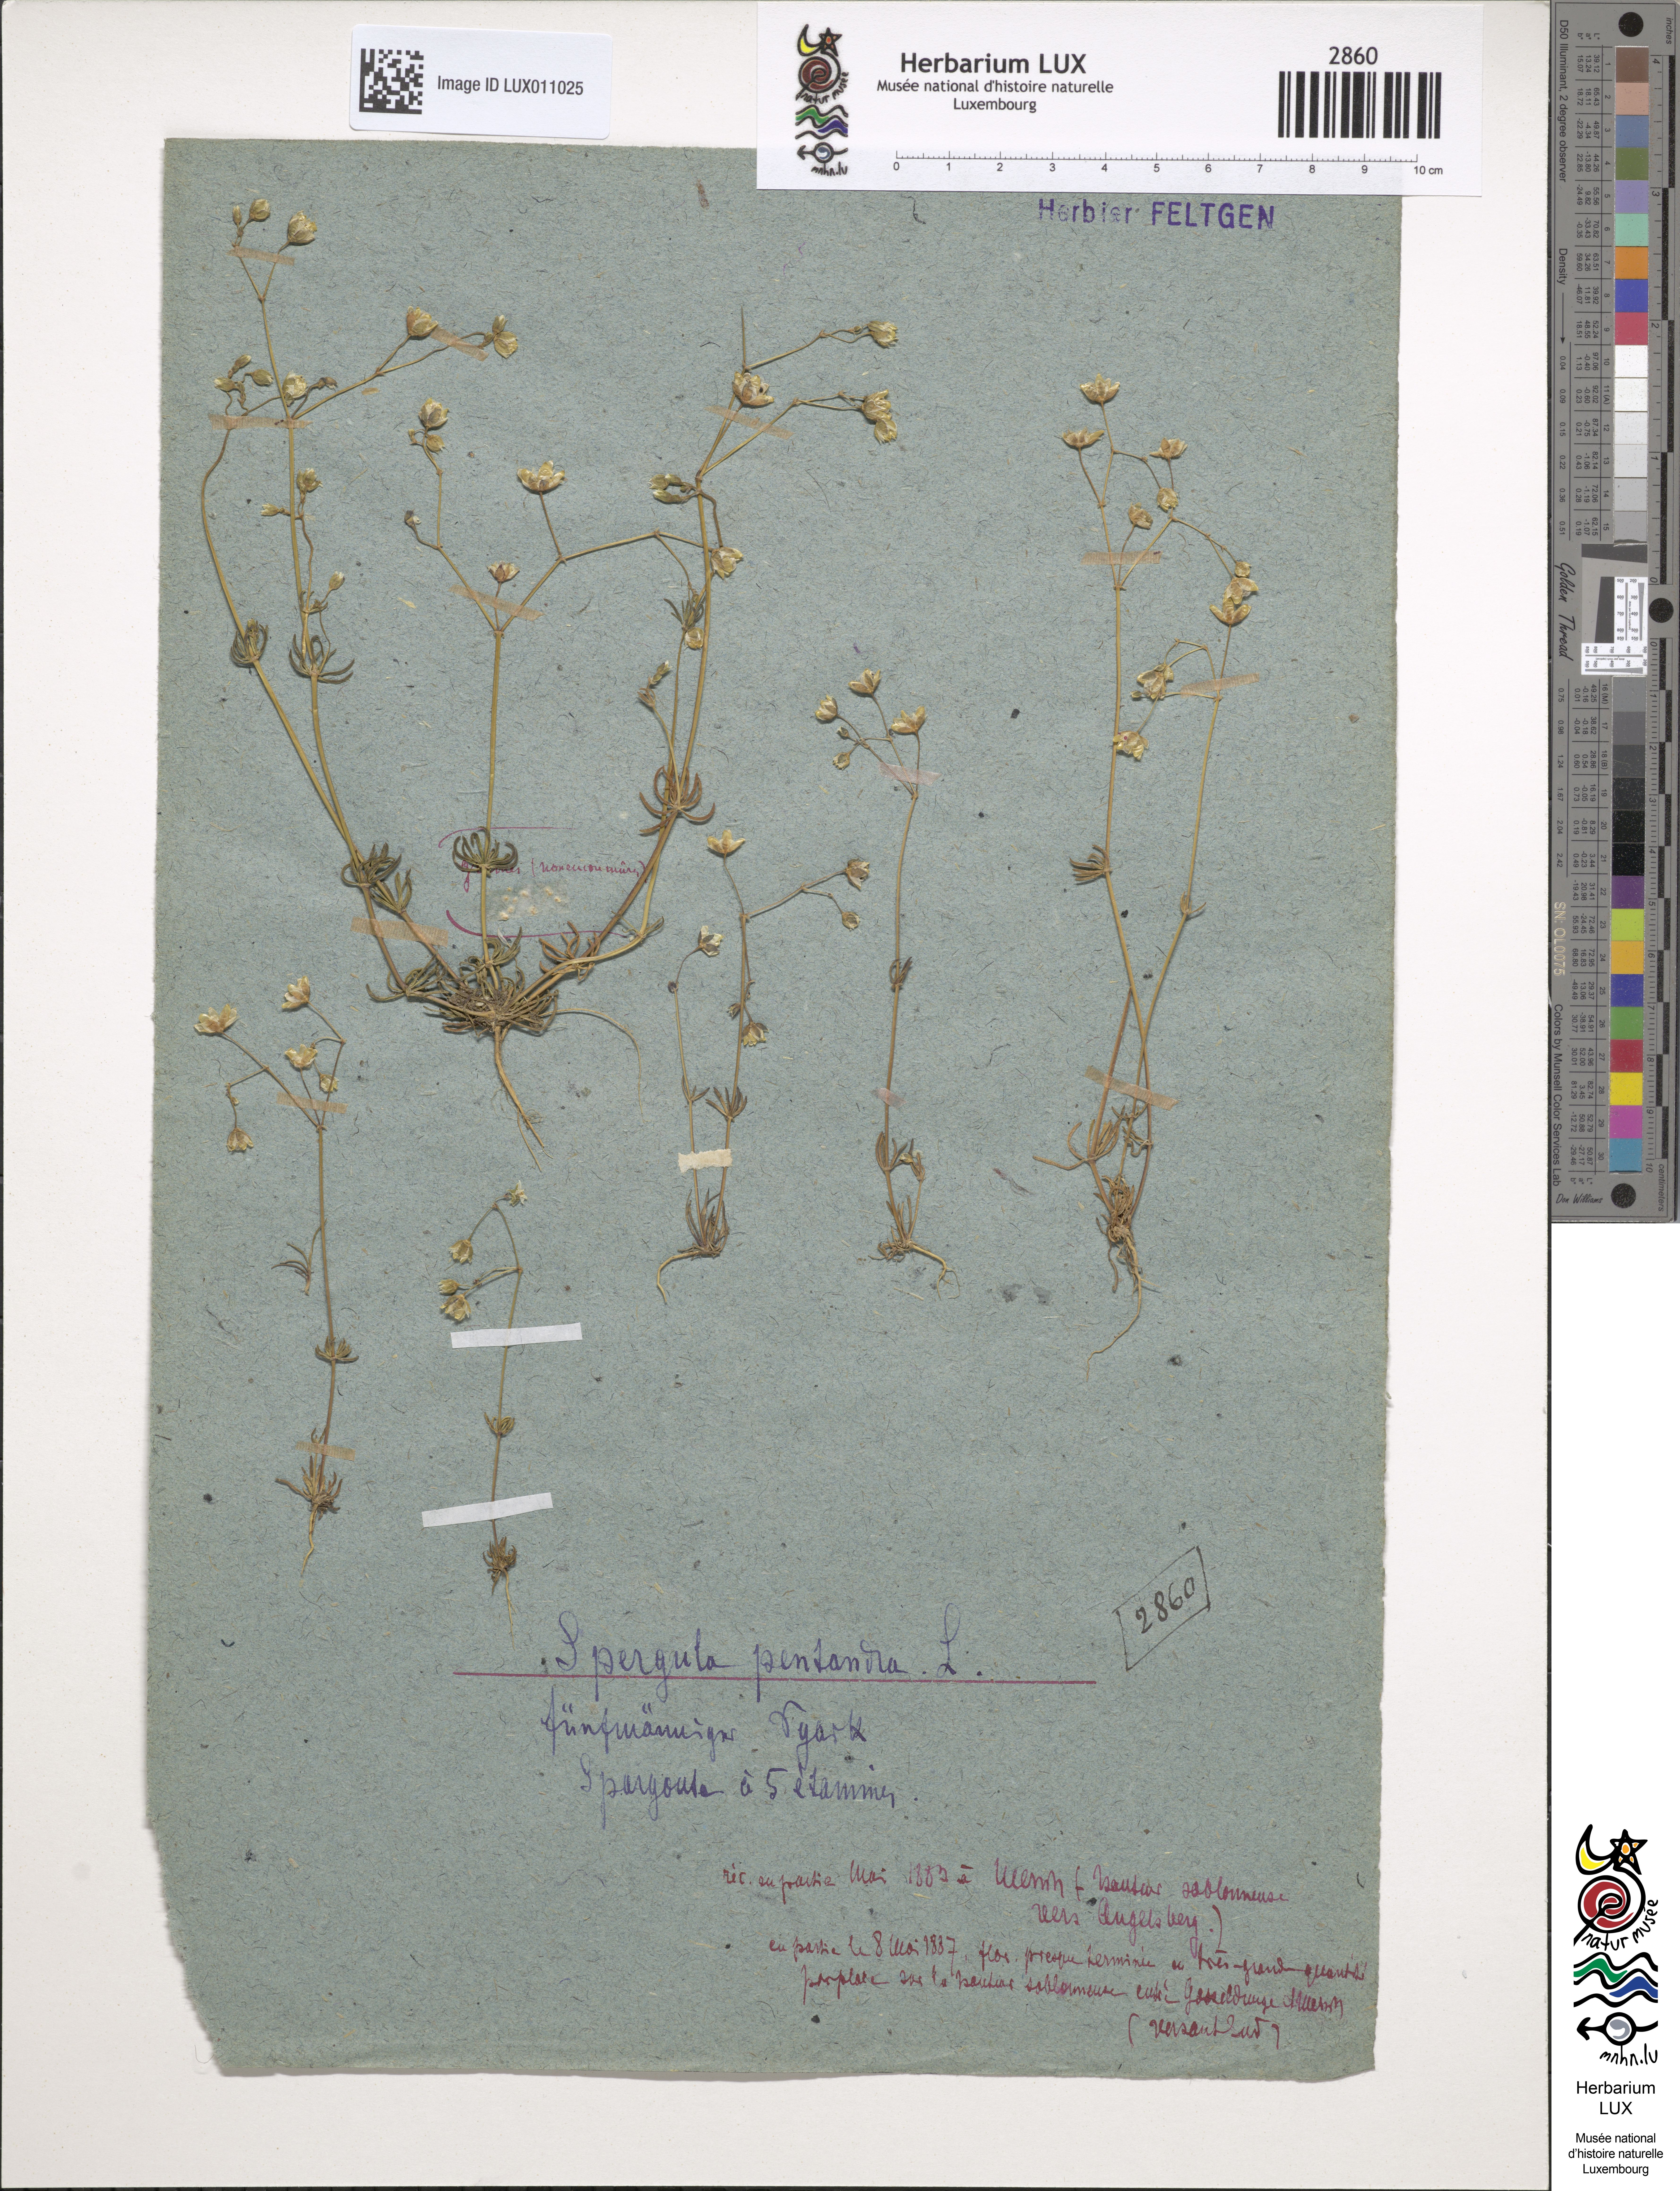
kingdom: Plantae
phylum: Tracheophyta
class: Magnoliopsida
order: Caryophyllales
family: Caryophyllaceae
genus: Spergula
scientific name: Spergula pentandra
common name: Wingstem spurry
